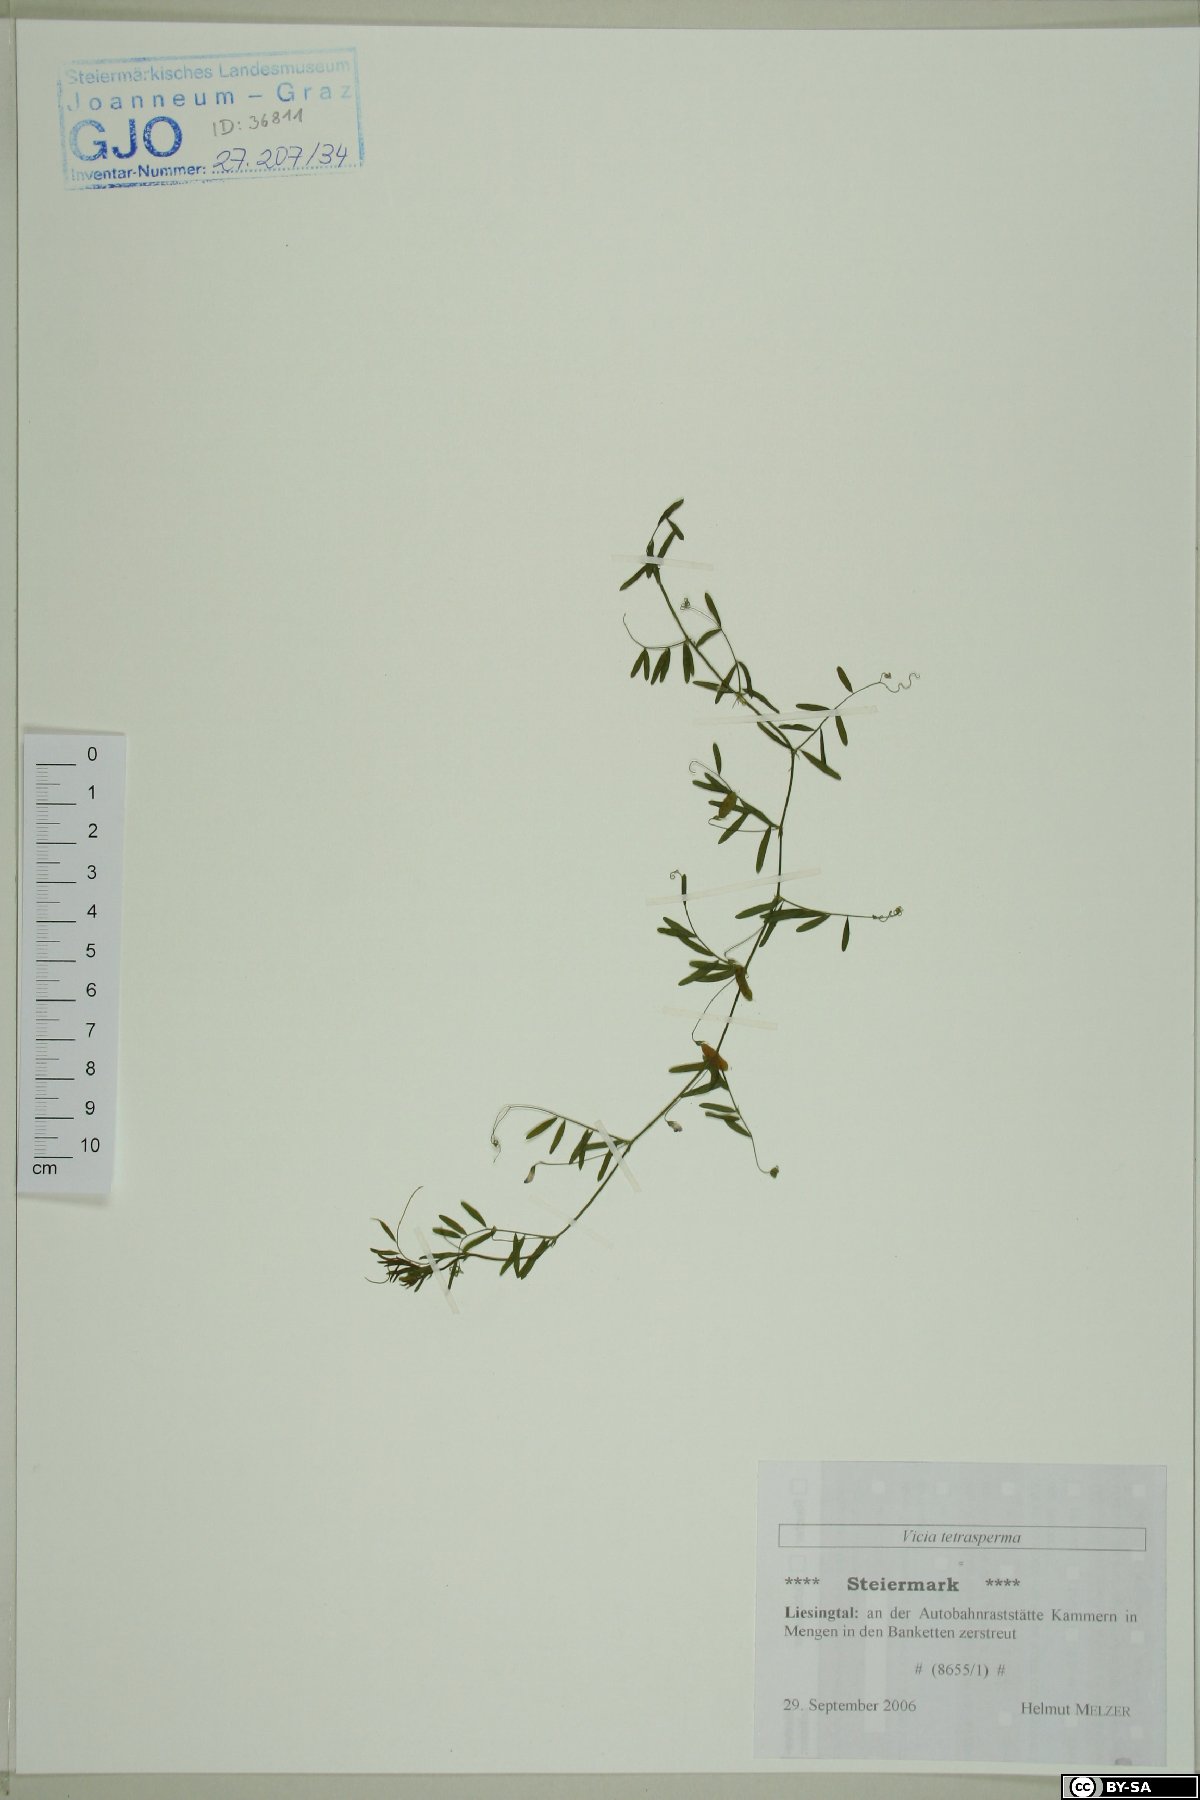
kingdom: Plantae
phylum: Tracheophyta
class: Magnoliopsida
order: Fabales
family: Fabaceae
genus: Vicia
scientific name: Vicia tetrasperma
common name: Smooth tare
